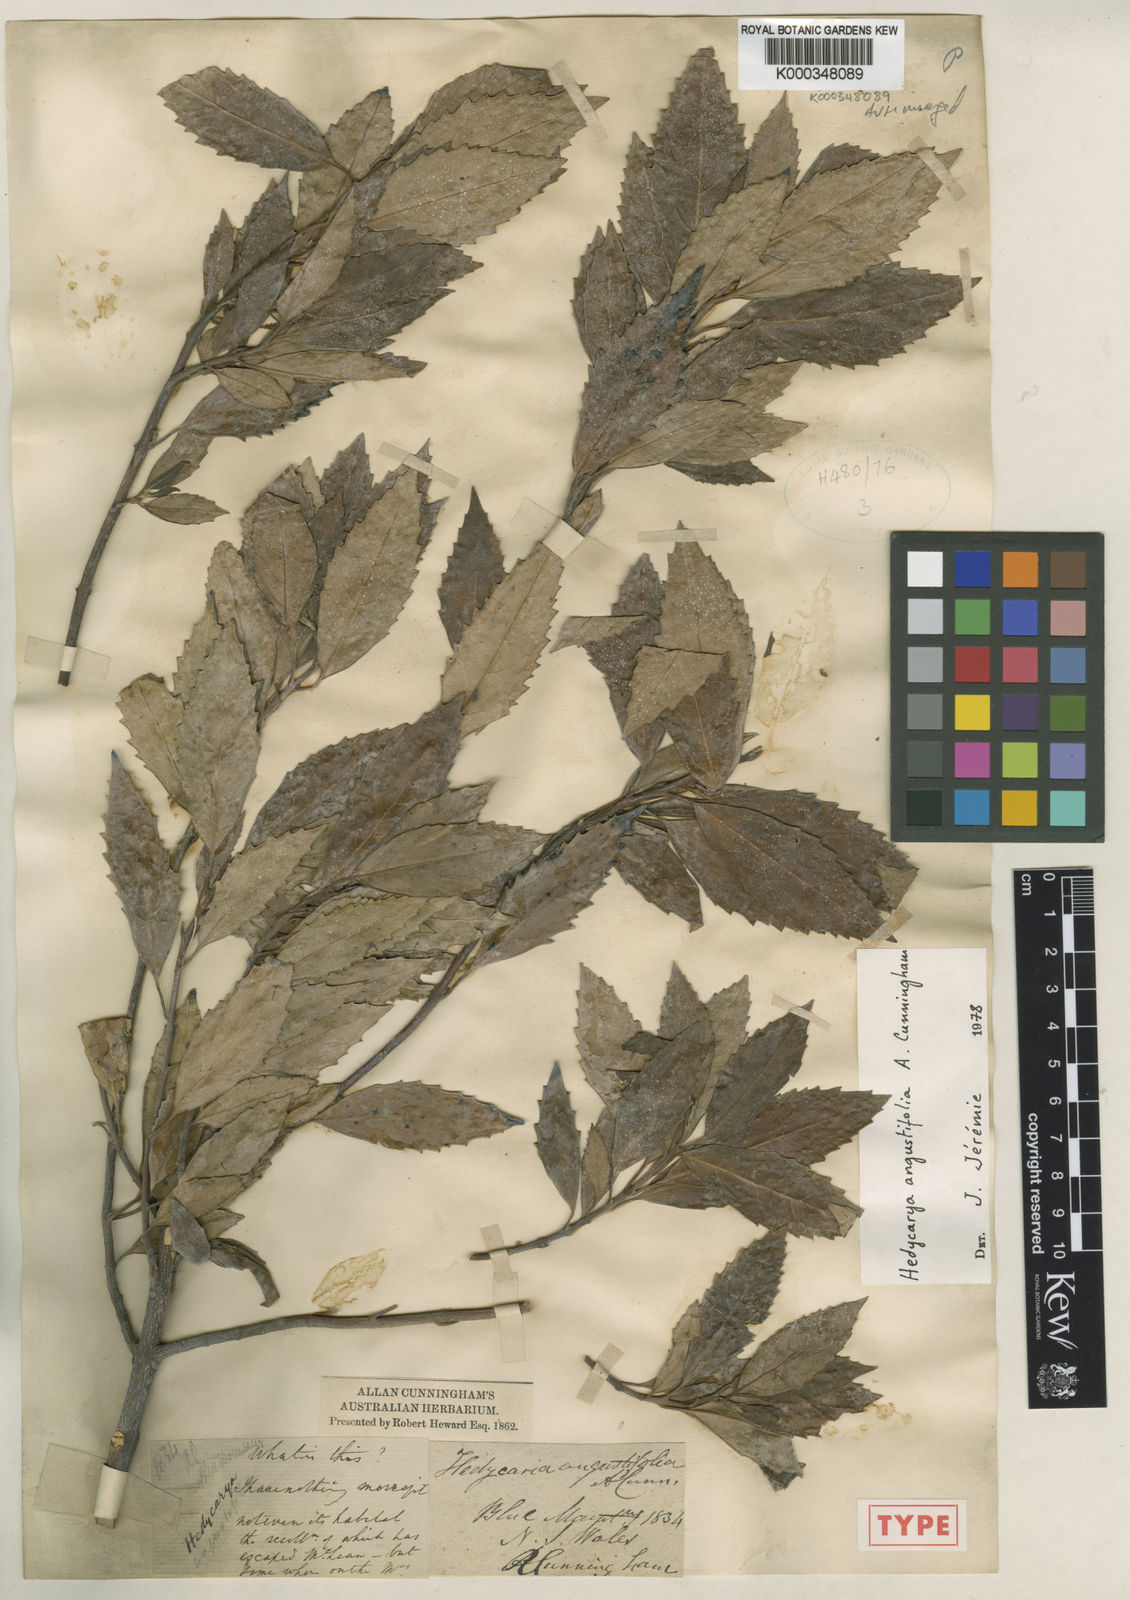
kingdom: Plantae
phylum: Tracheophyta
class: Magnoliopsida
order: Laurales
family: Monimiaceae
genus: Hedycarya
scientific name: Hedycarya angustifolia
